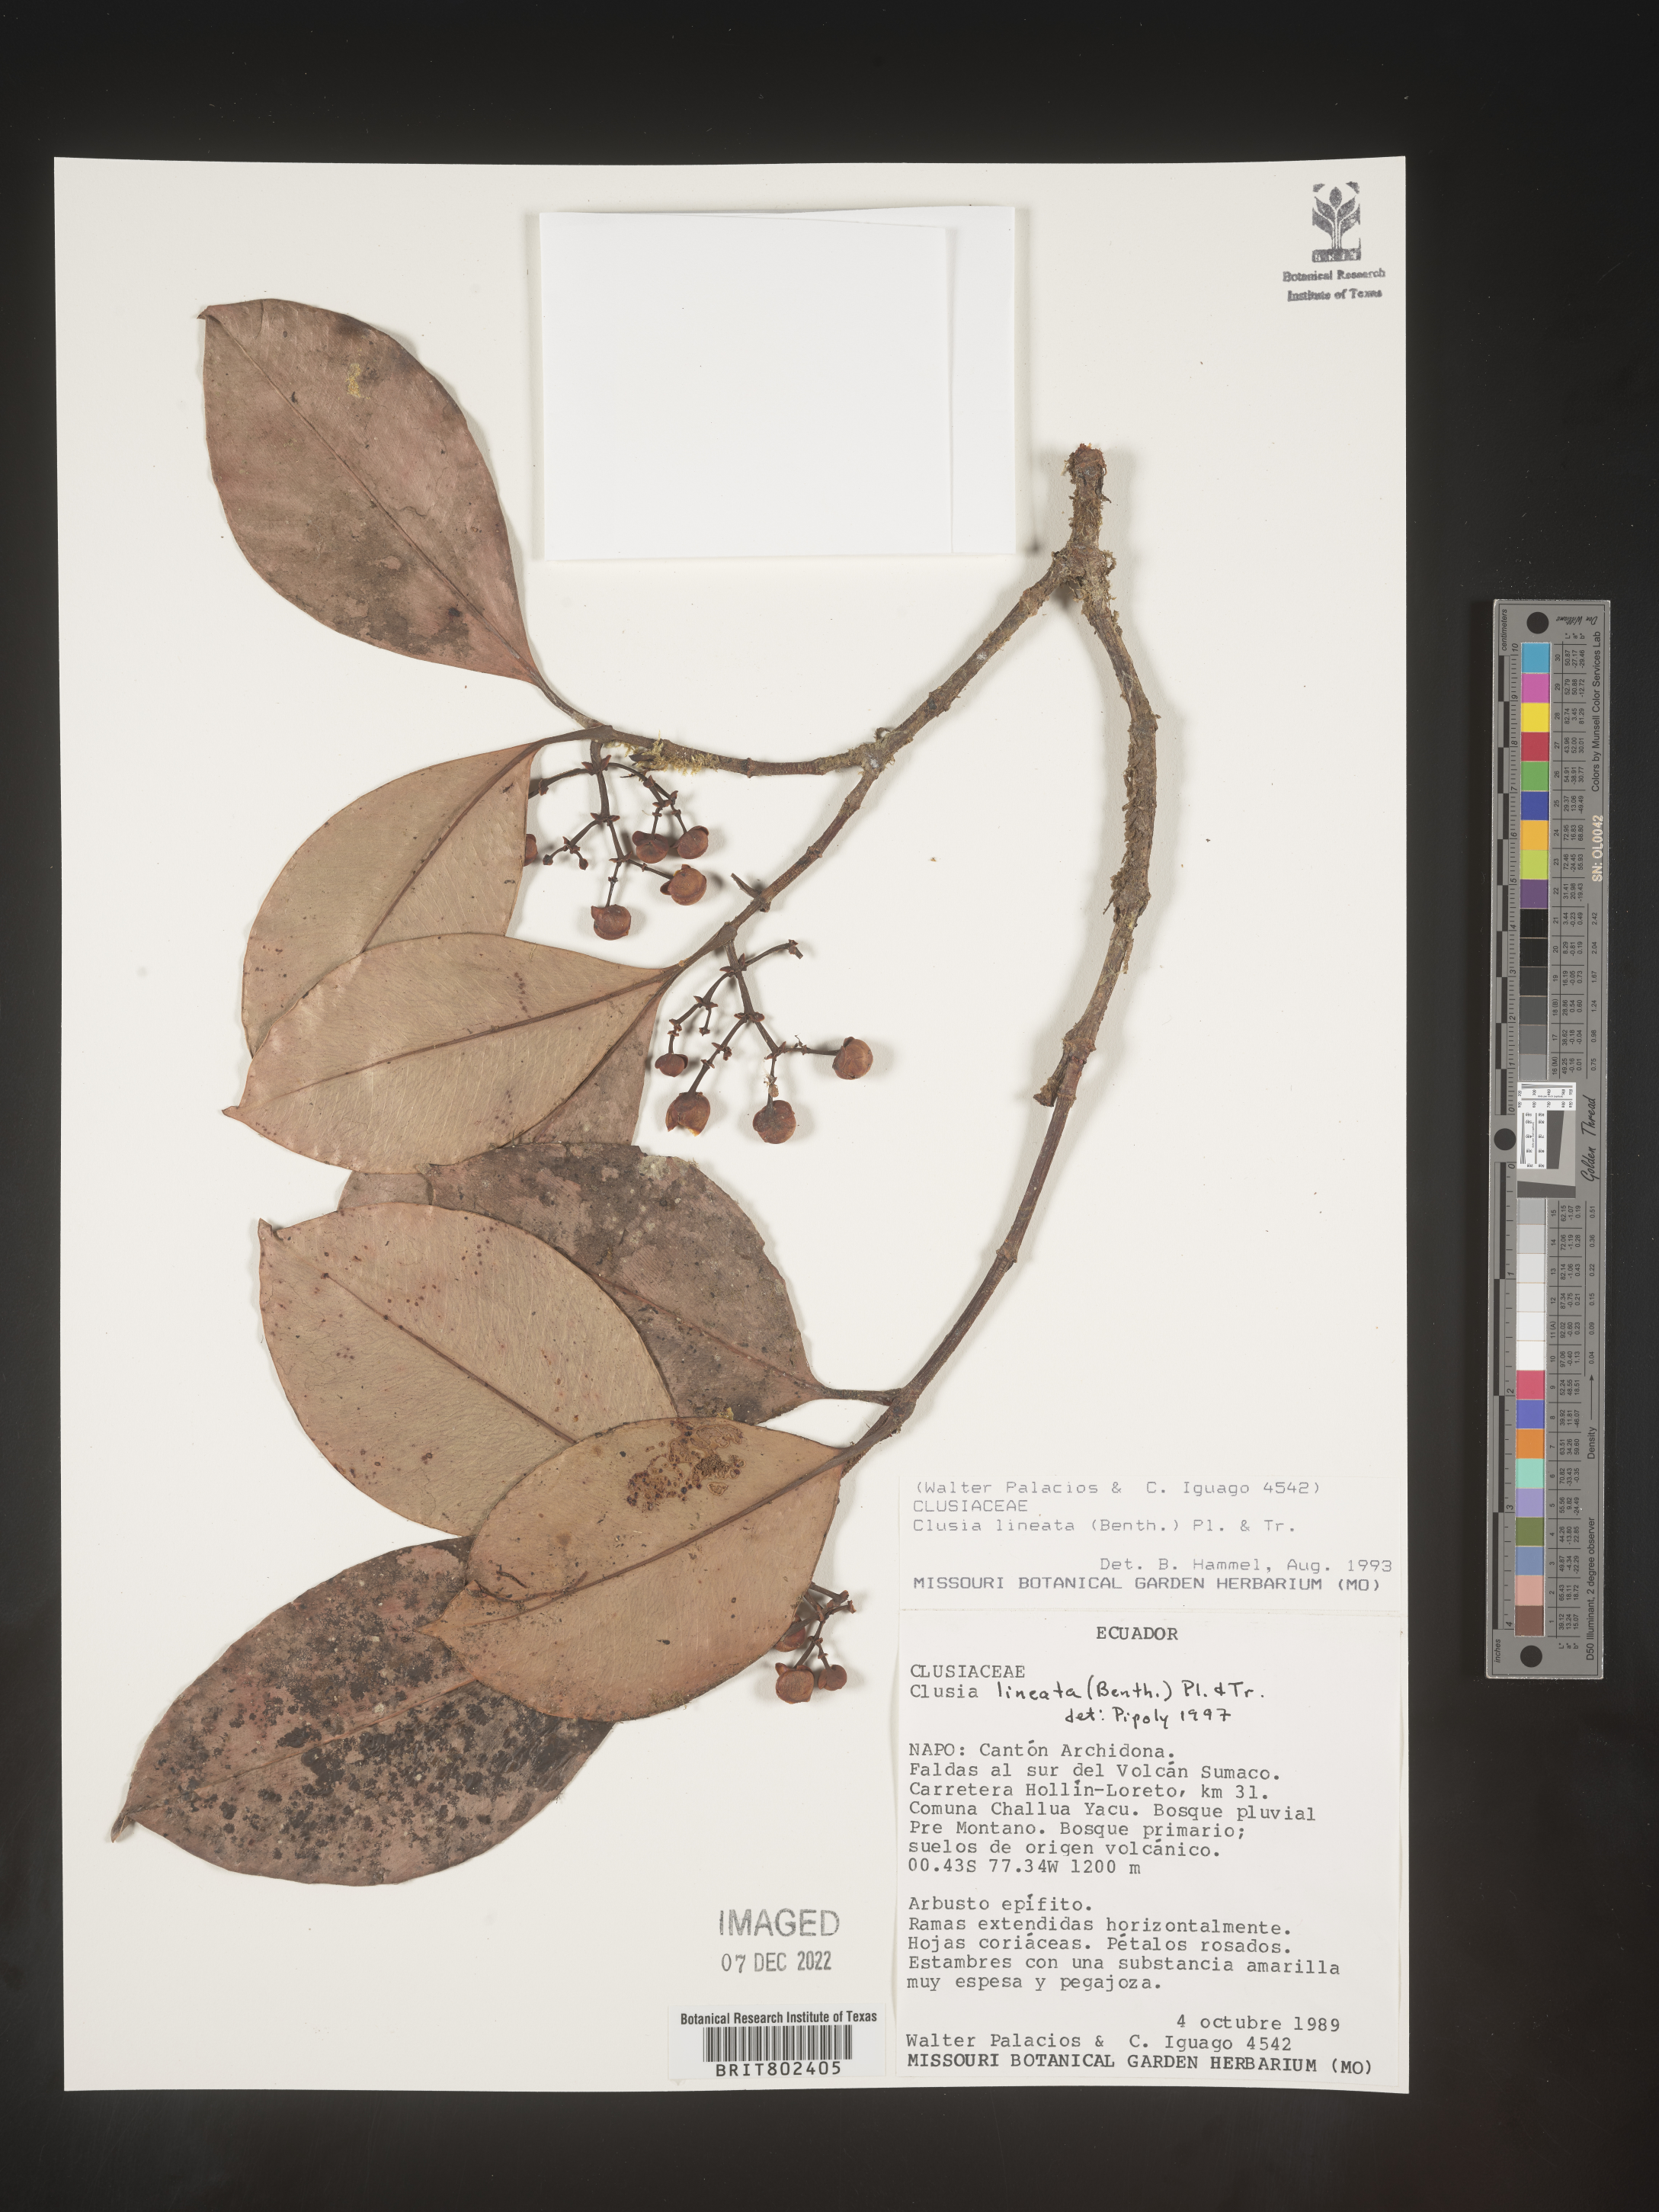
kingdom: Plantae
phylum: Tracheophyta
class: Magnoliopsida
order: Malpighiales
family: Clusiaceae
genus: Clusia
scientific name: Clusia lineata
